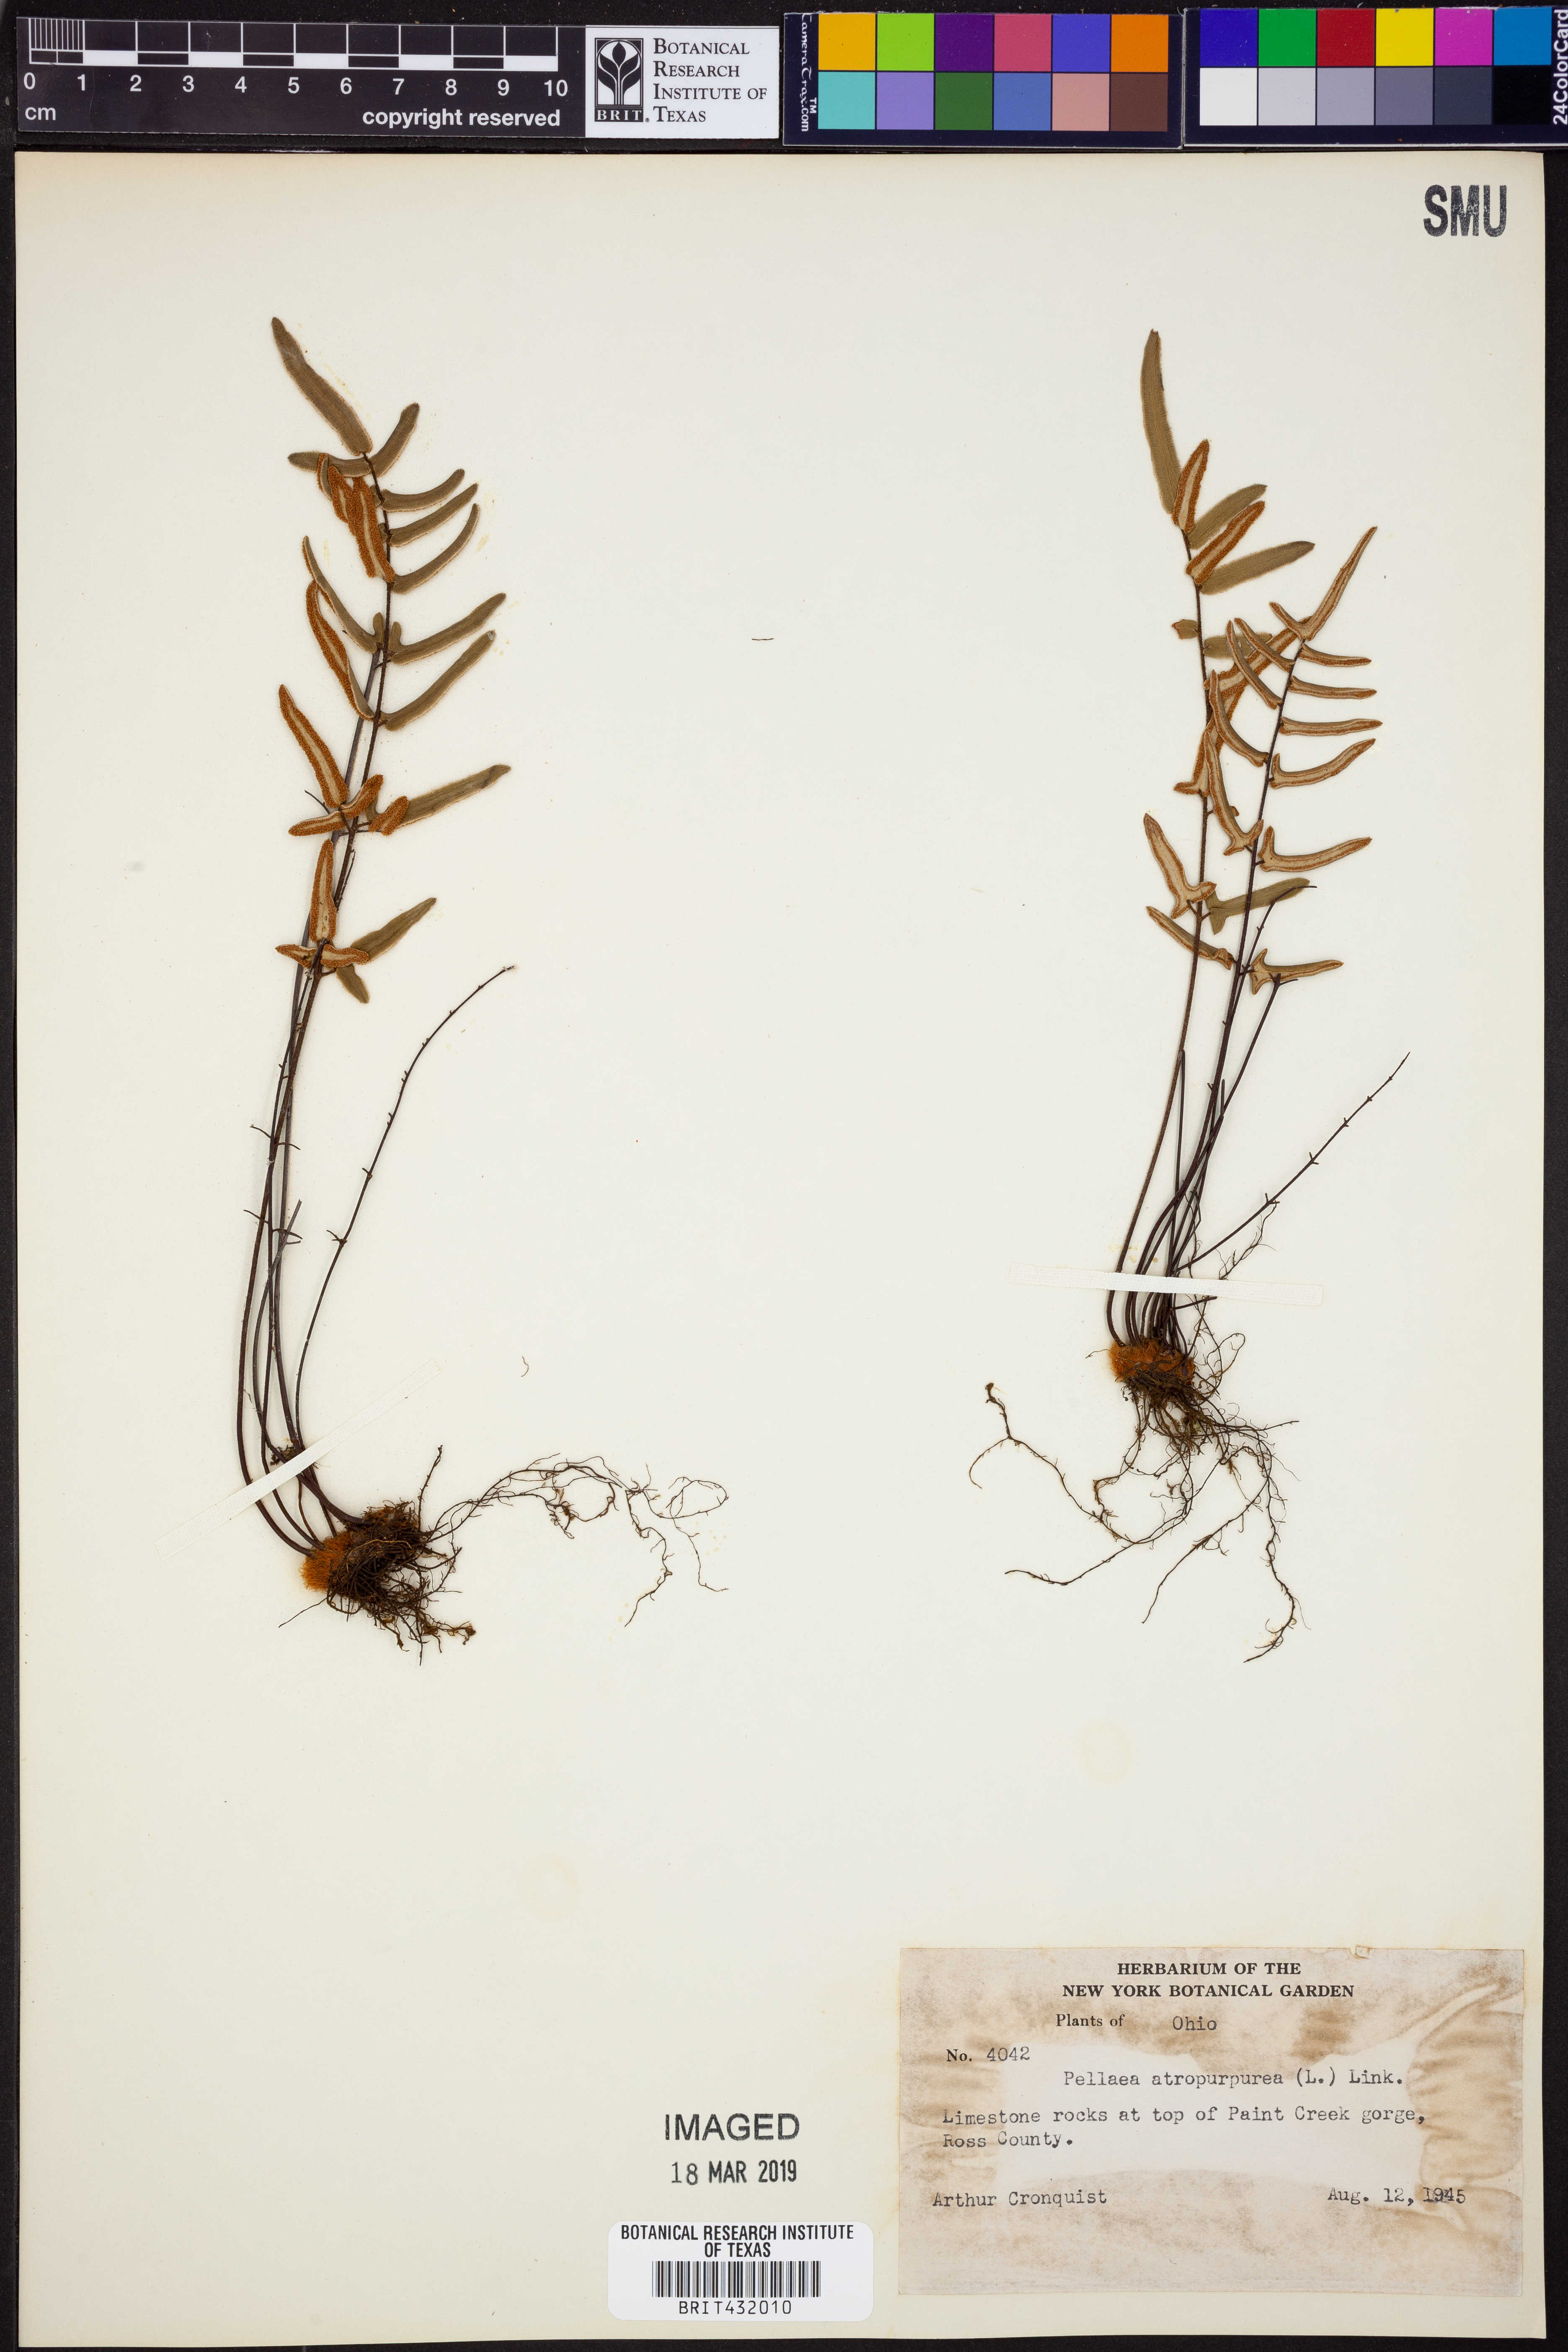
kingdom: Plantae
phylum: Tracheophyta
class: Polypodiopsida
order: Polypodiales
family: Pteridaceae
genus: Pellaea
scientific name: Pellaea atropurpurea
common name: Hairy cliffbrake
